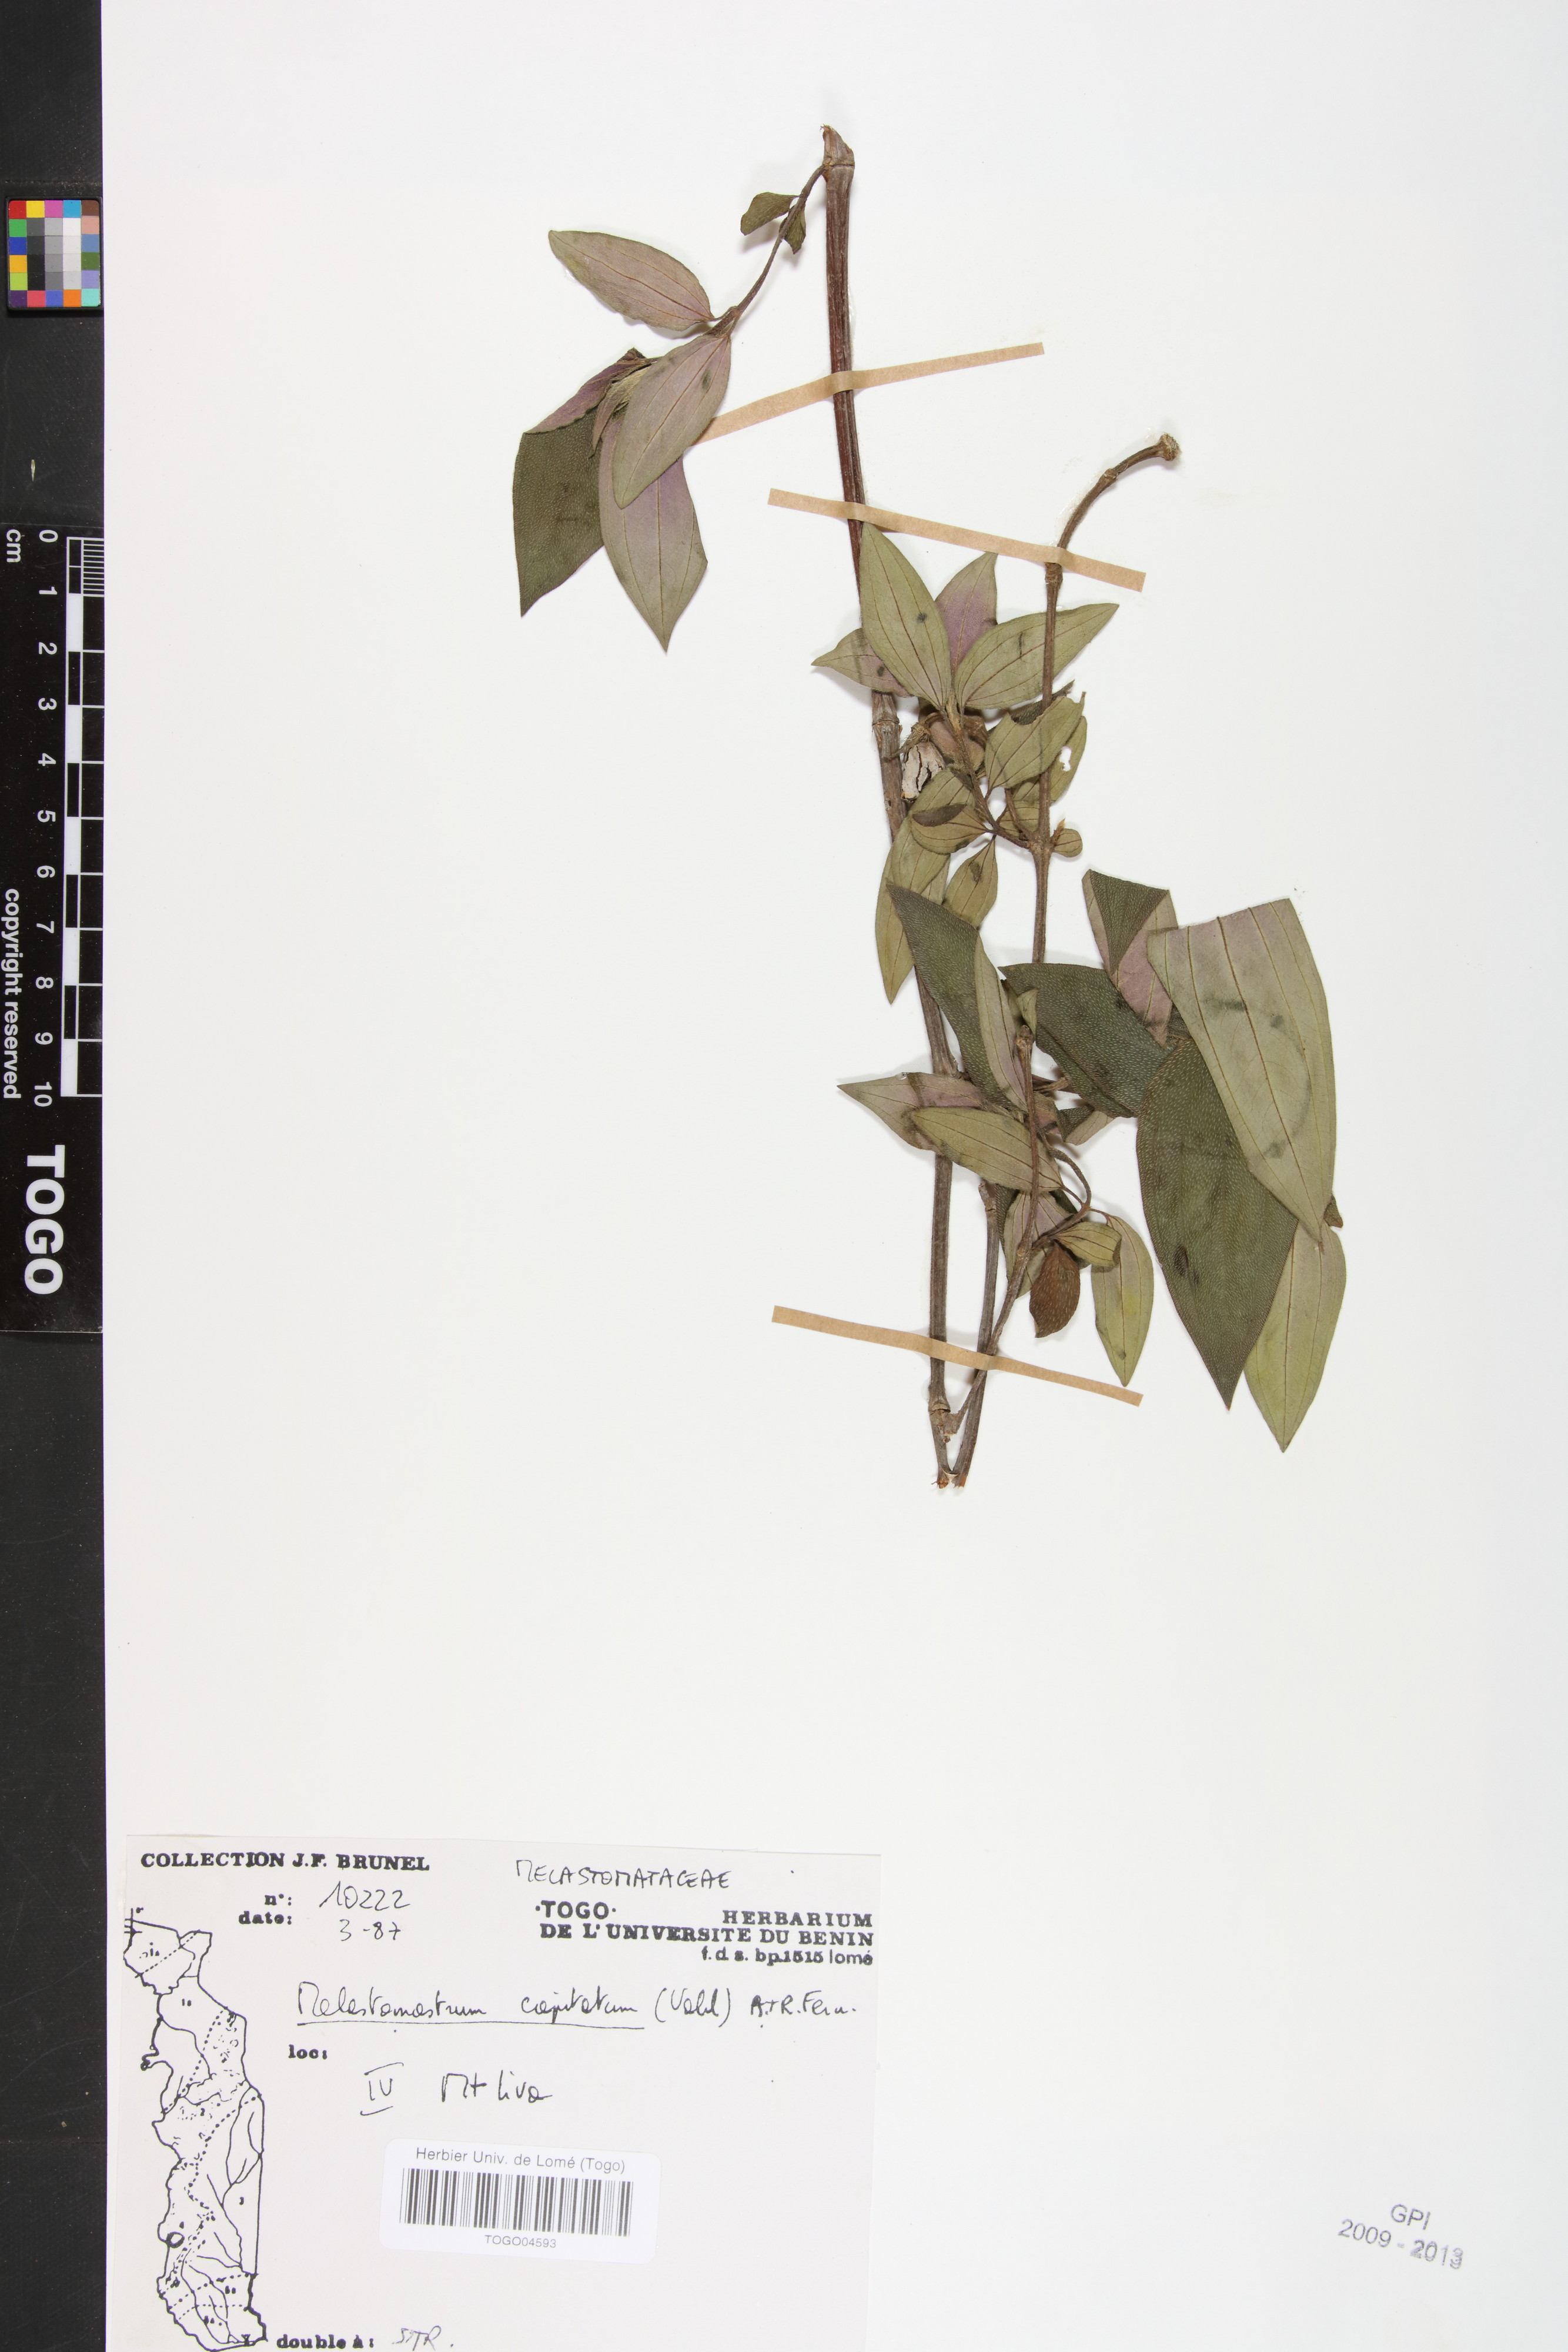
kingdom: Plantae
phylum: Tracheophyta
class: Magnoliopsida
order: Myrtales
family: Melastomataceae
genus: Melastomastrum
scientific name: Melastomastrum capitatum
